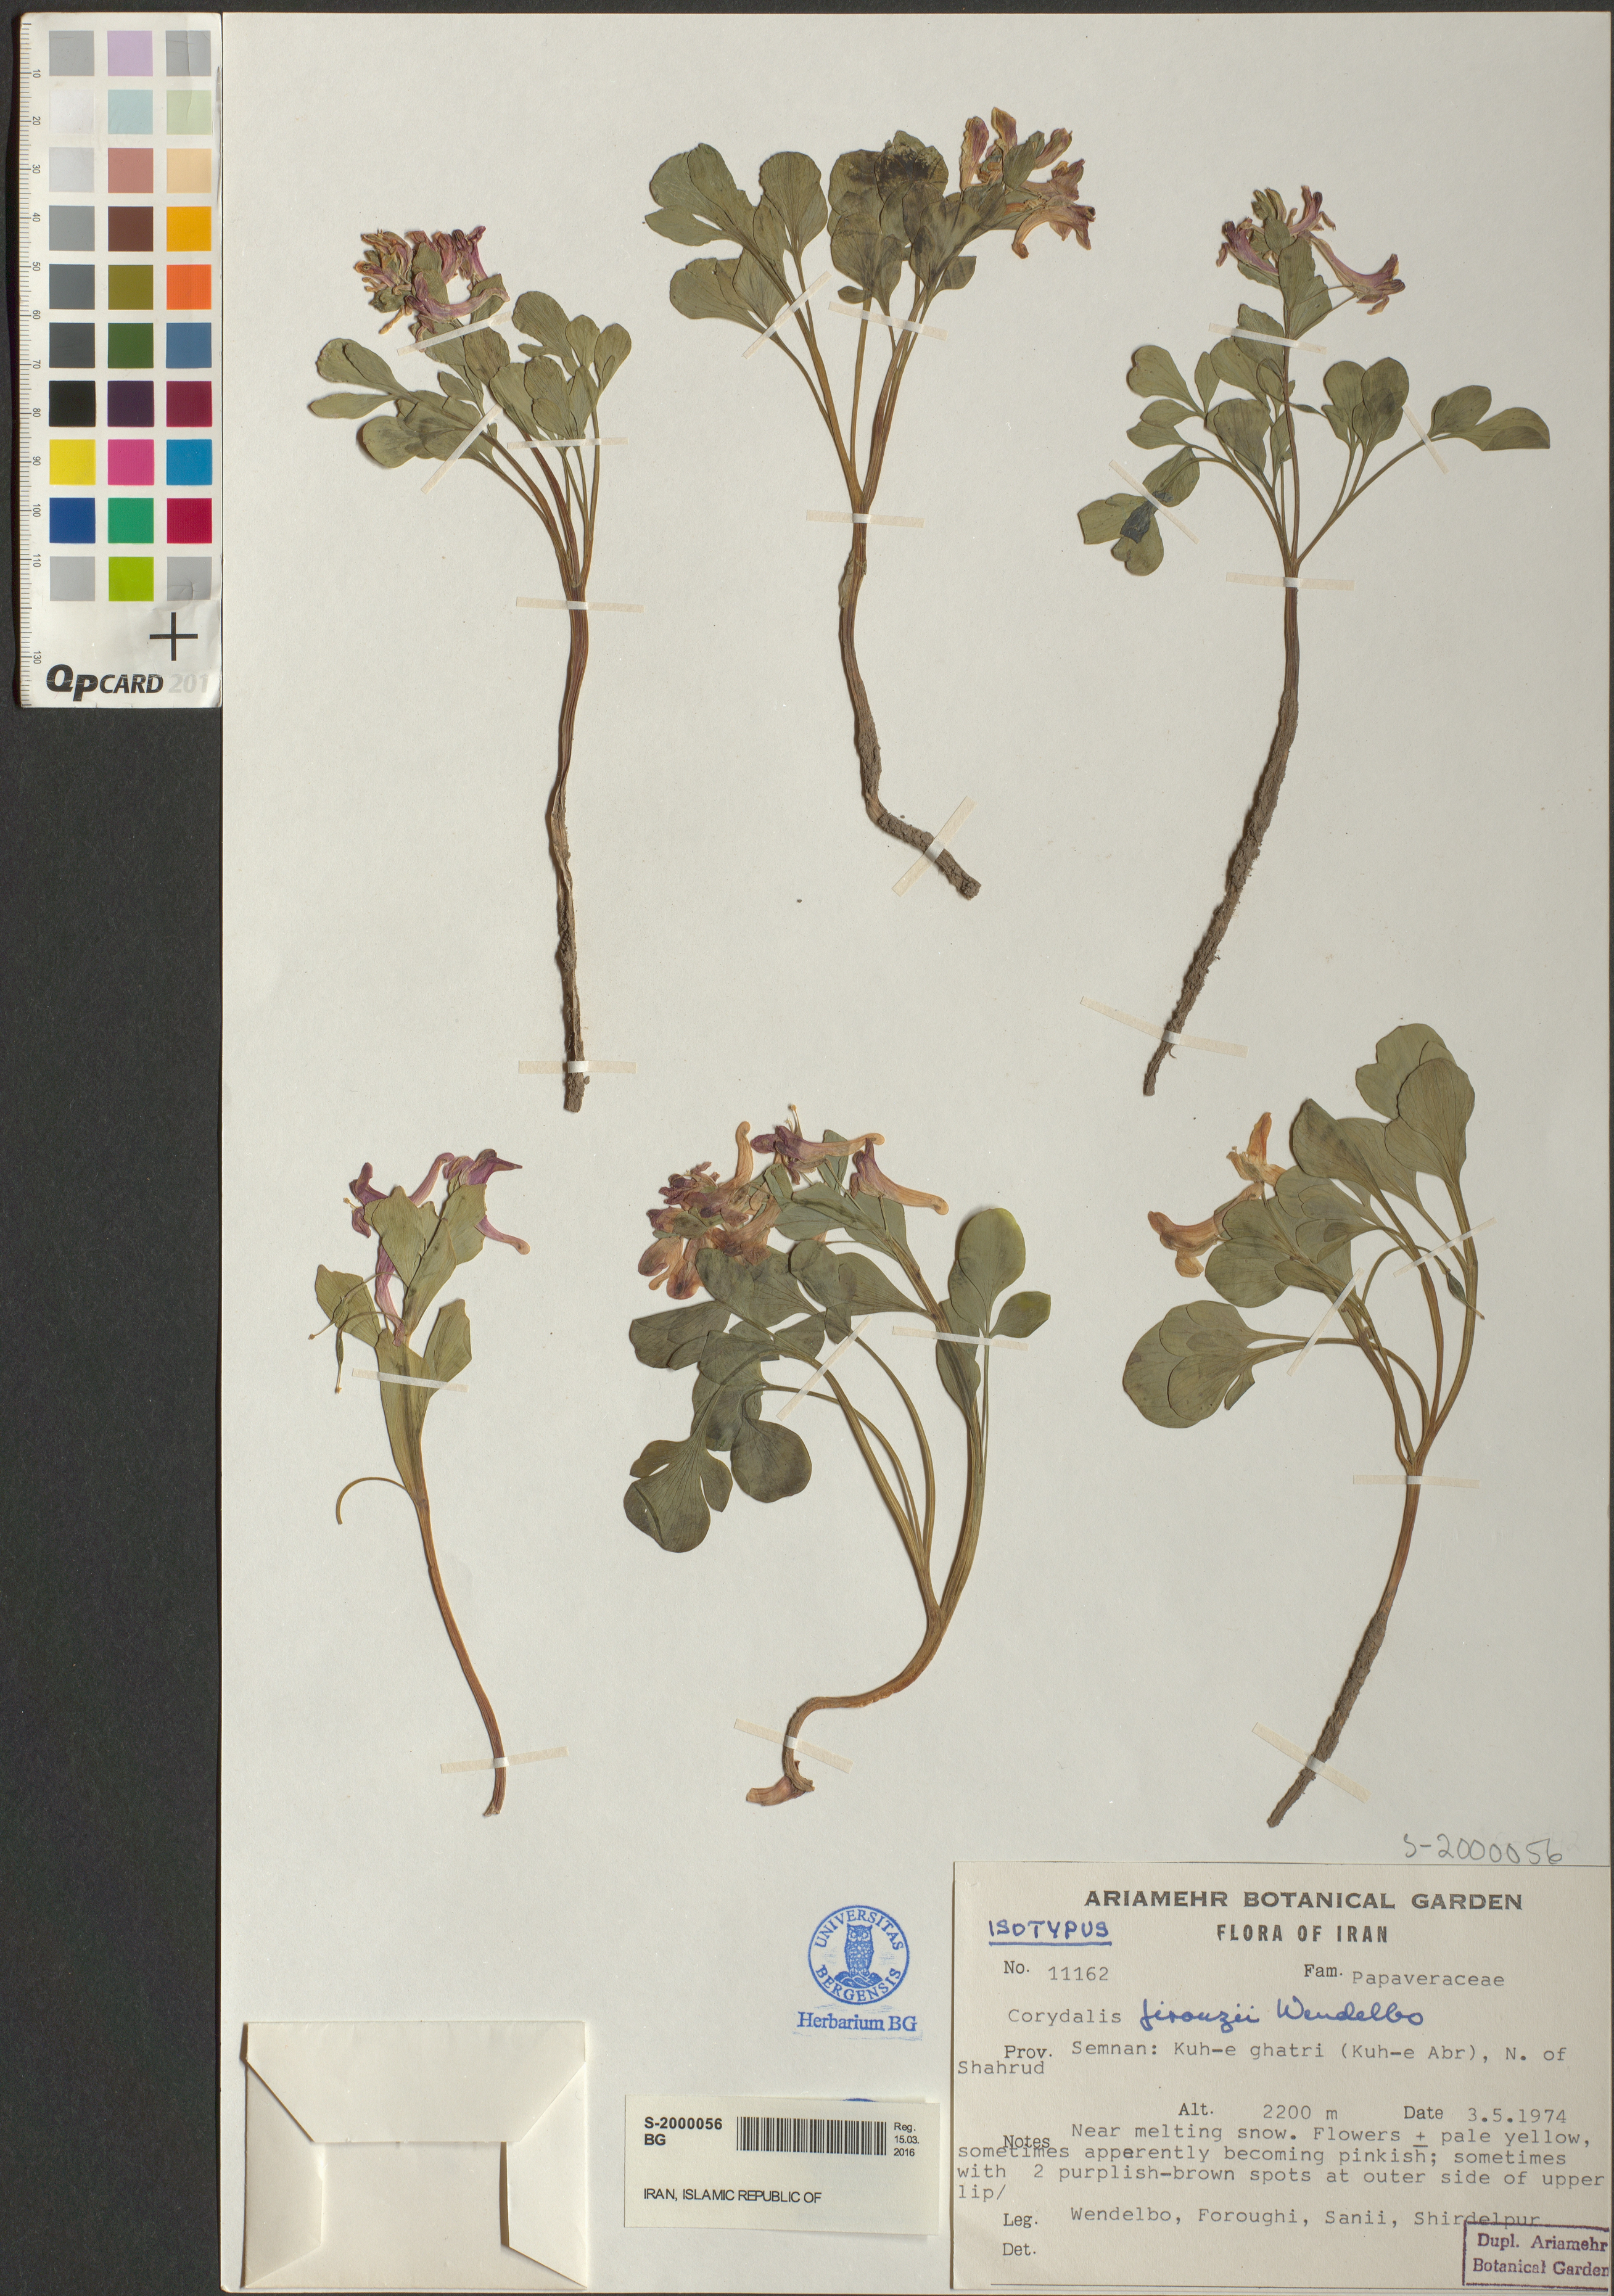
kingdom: Plantae
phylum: Tracheophyta
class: Magnoliopsida
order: Ranunculales
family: Papaveraceae
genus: Corydalis
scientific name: Corydalis chionophila
